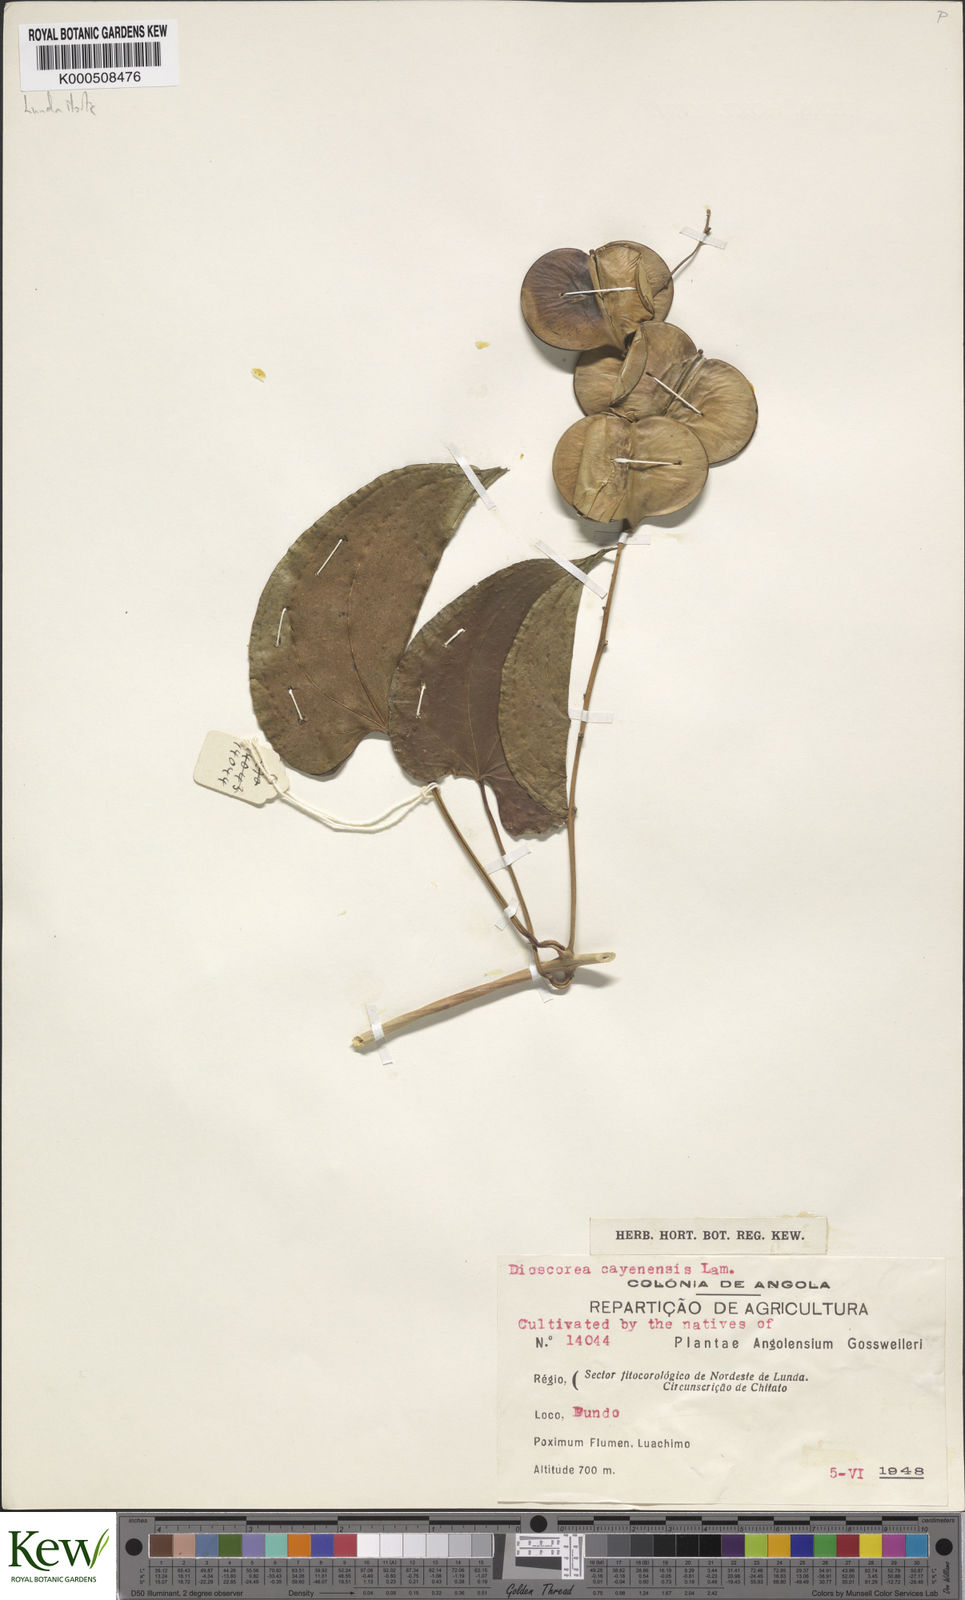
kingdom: Plantae
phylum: Tracheophyta
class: Liliopsida
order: Dioscoreales
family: Dioscoreaceae
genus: Dioscorea
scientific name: Dioscorea cayenensis
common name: Attoto yam
